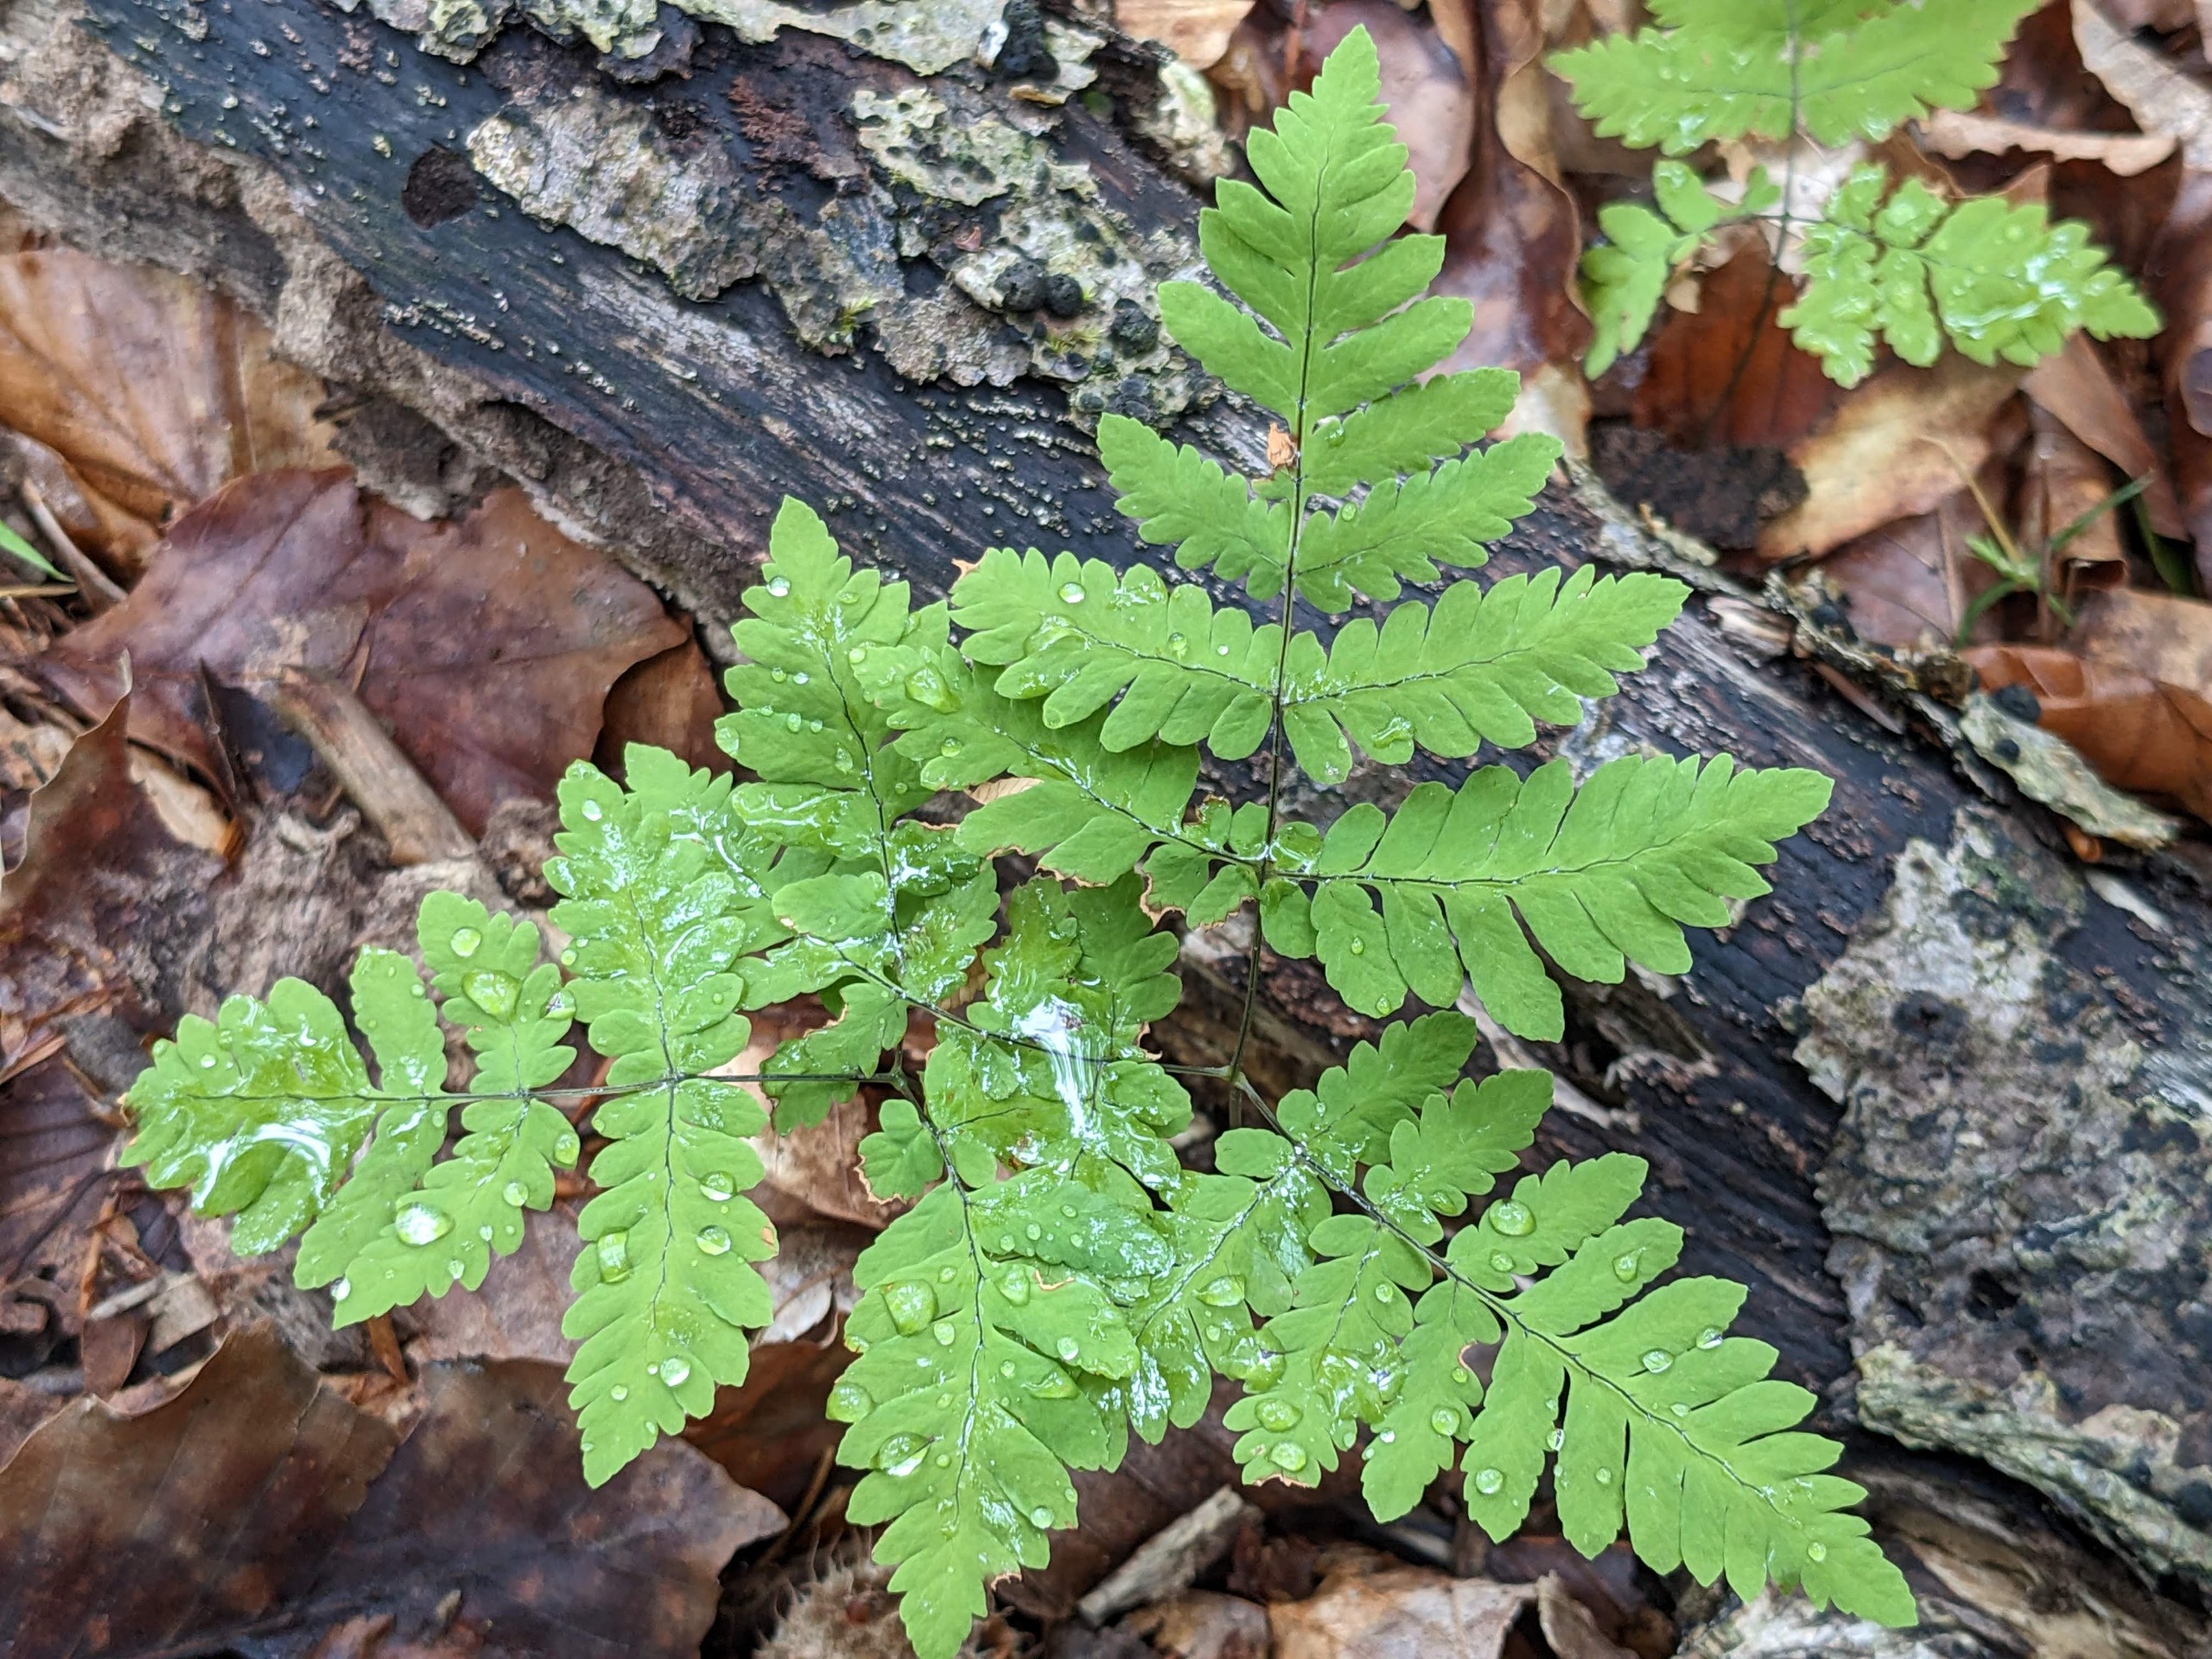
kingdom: Plantae
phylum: Tracheophyta
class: Polypodiopsida
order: Polypodiales
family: Cystopteridaceae
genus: Gymnocarpium
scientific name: Gymnocarpium dryopteris
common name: Tredelt egebregne
